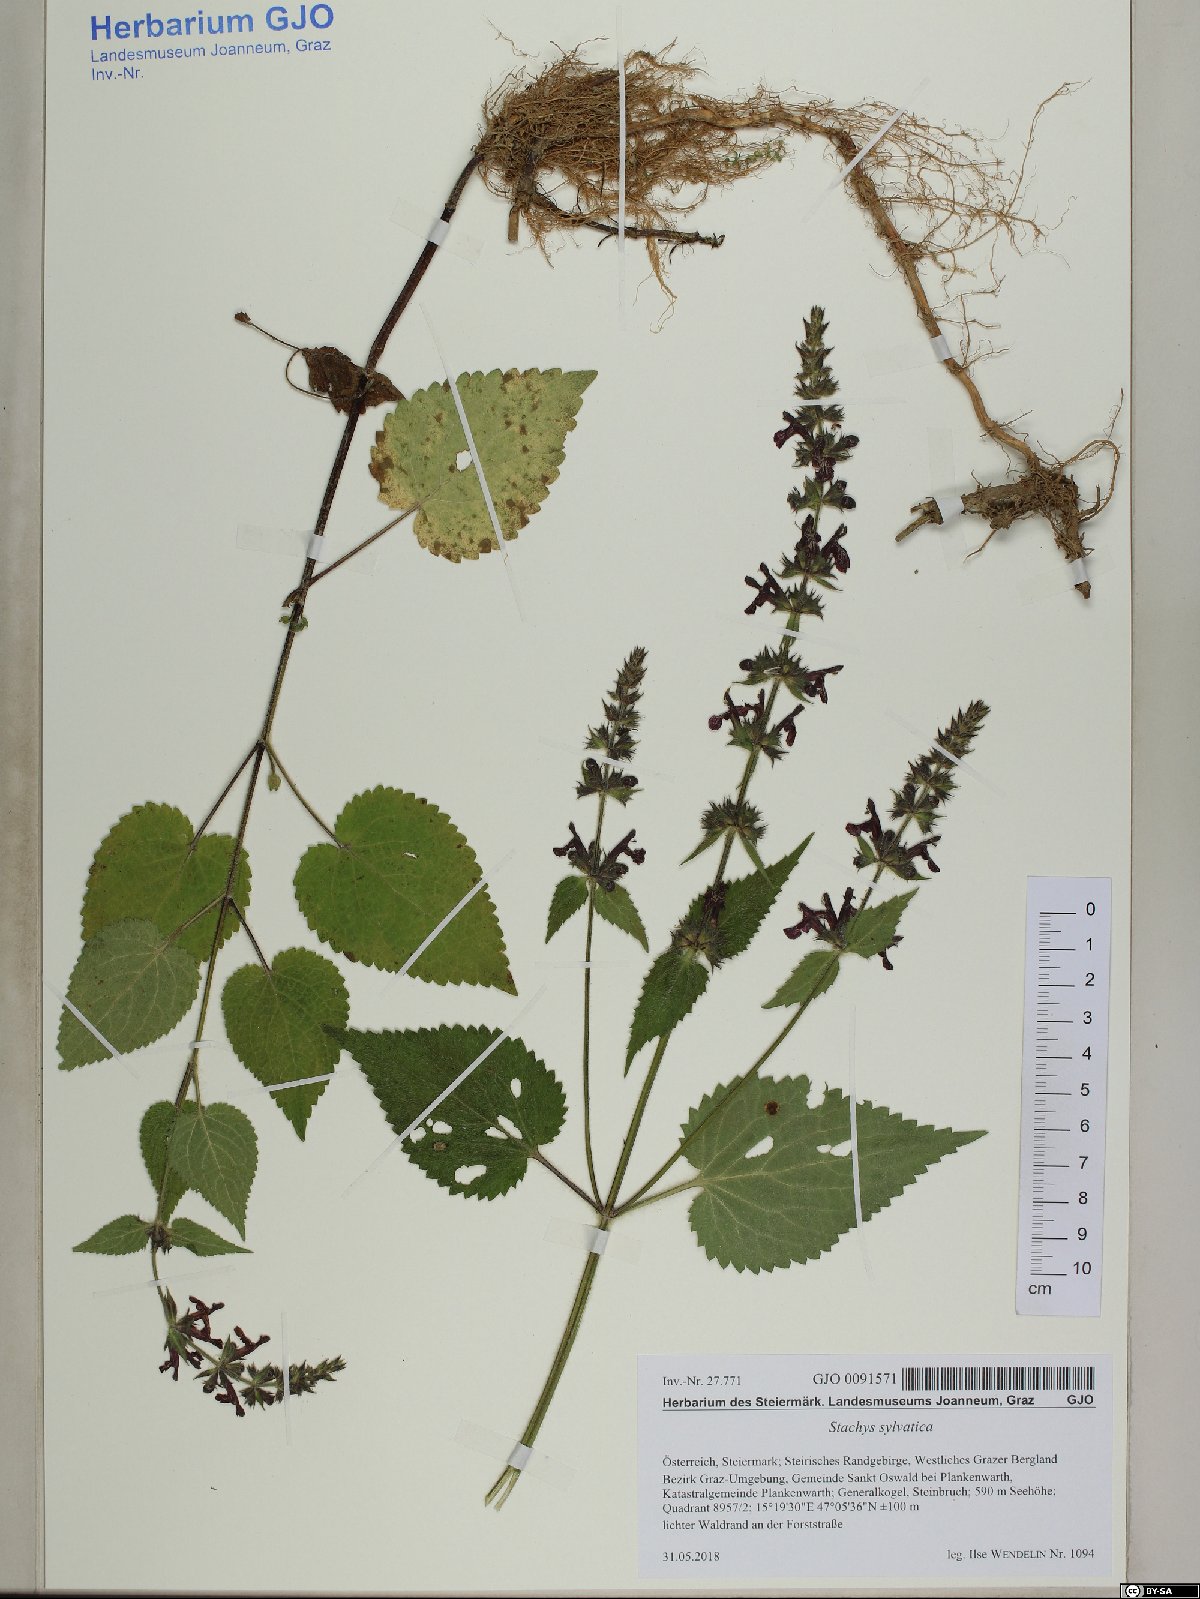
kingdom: Plantae
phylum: Tracheophyta
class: Magnoliopsida
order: Lamiales
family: Lamiaceae
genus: Stachys
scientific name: Stachys sylvatica
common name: Hedge woundwort
